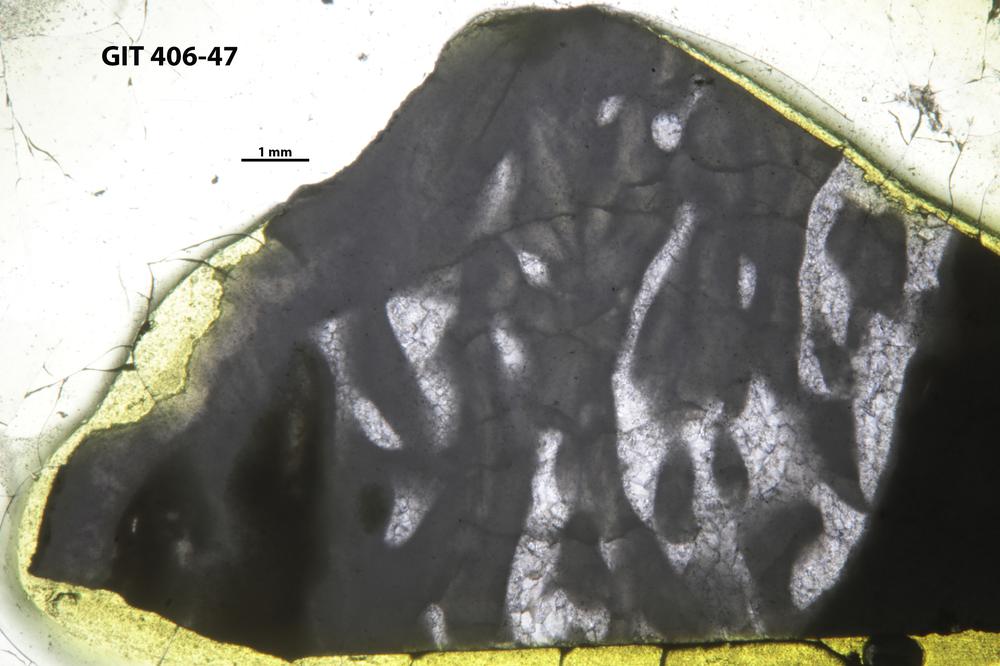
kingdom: Animalia
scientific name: Animalia
